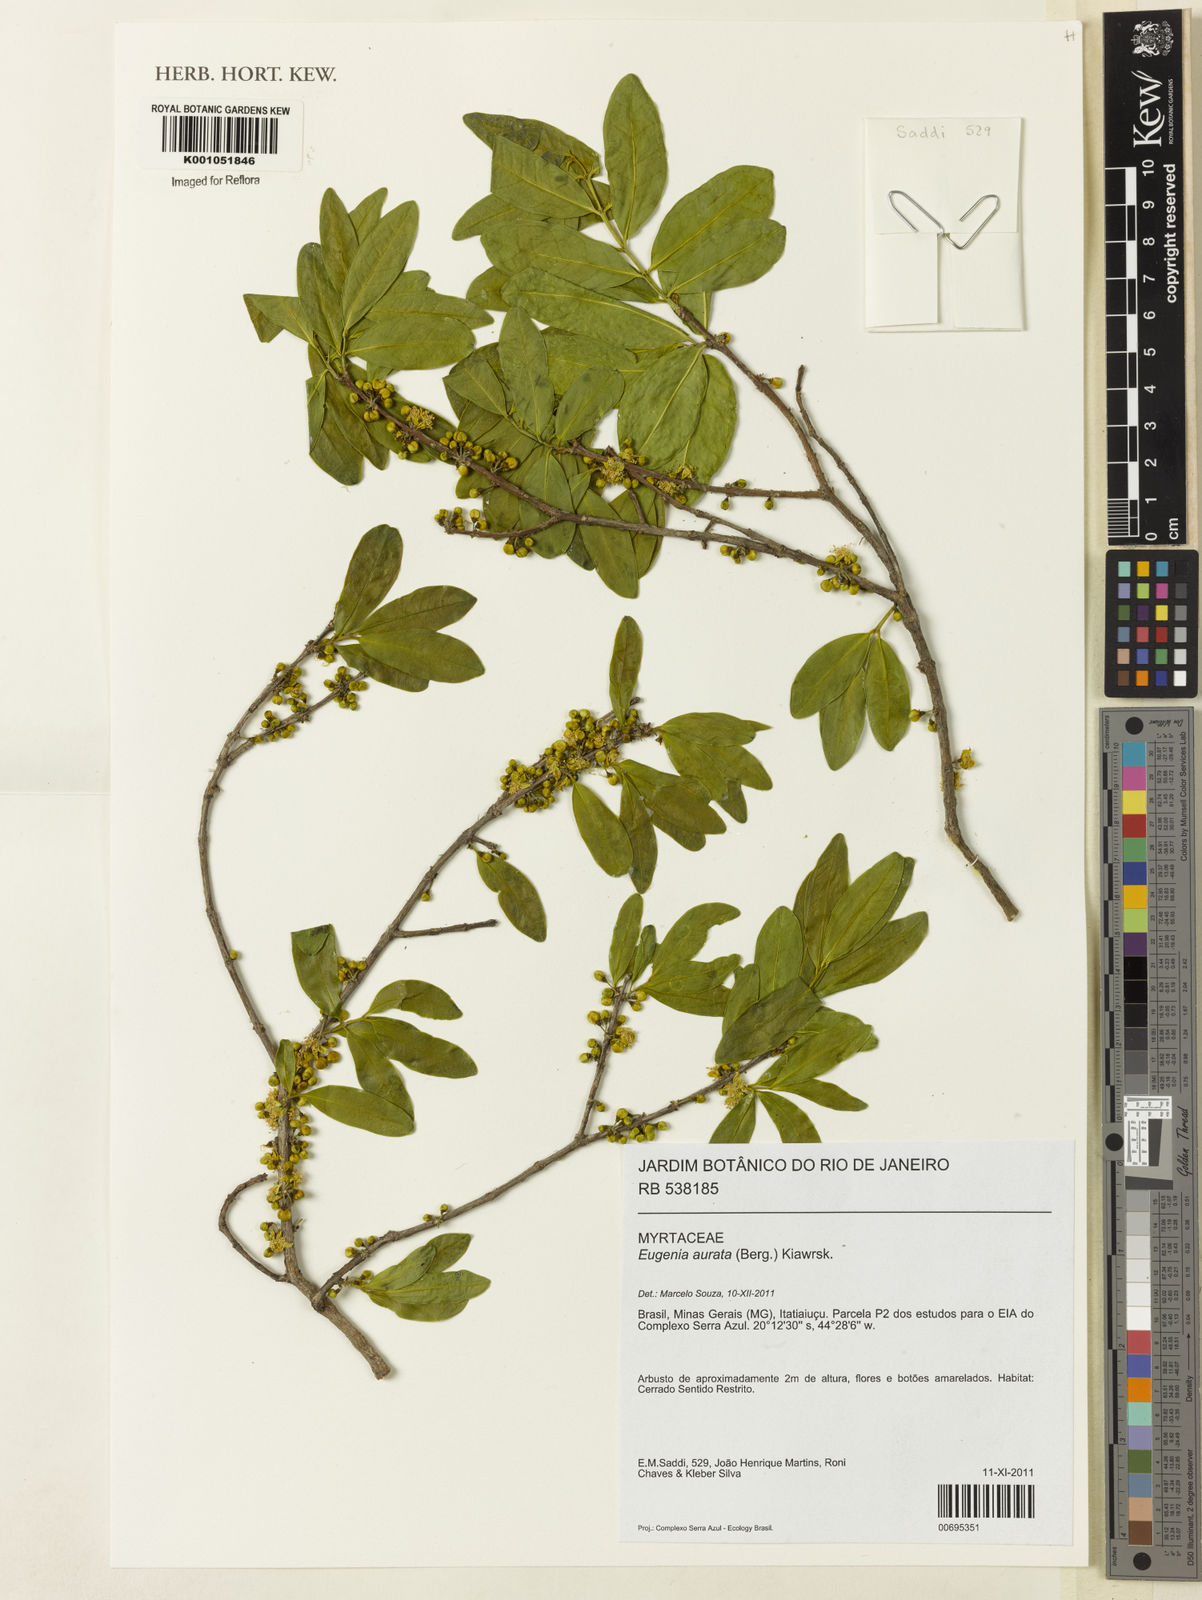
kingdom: Plantae
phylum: Tracheophyta
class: Magnoliopsida
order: Myrtales
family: Myrtaceae
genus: Eugenia
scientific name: Eugenia aurata
